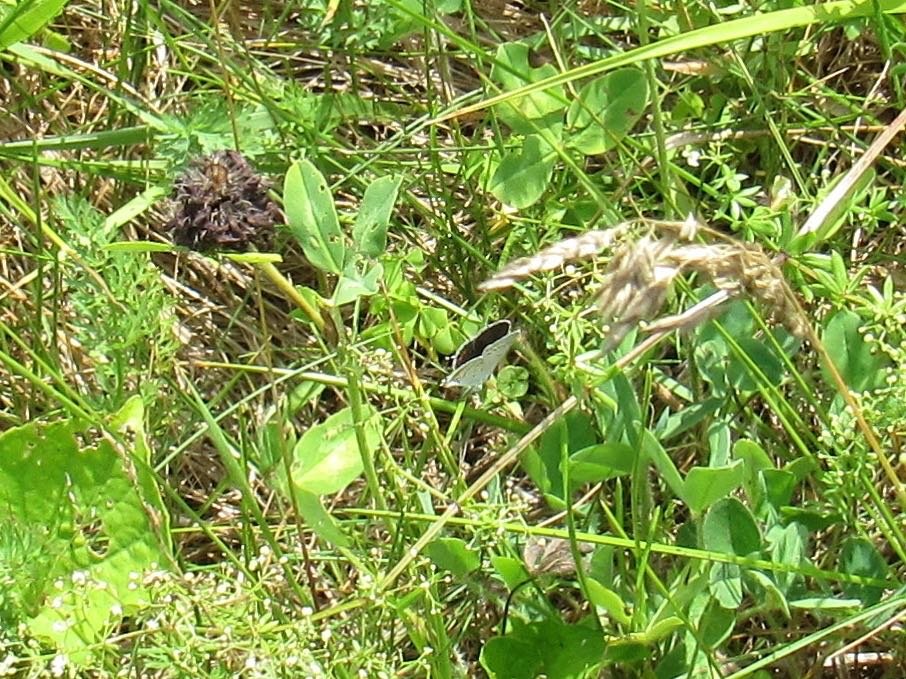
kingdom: Animalia
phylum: Arthropoda
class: Insecta
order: Lepidoptera
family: Lycaenidae
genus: Elkalyce
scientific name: Elkalyce comyntas
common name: Eastern Tailed-Blue
